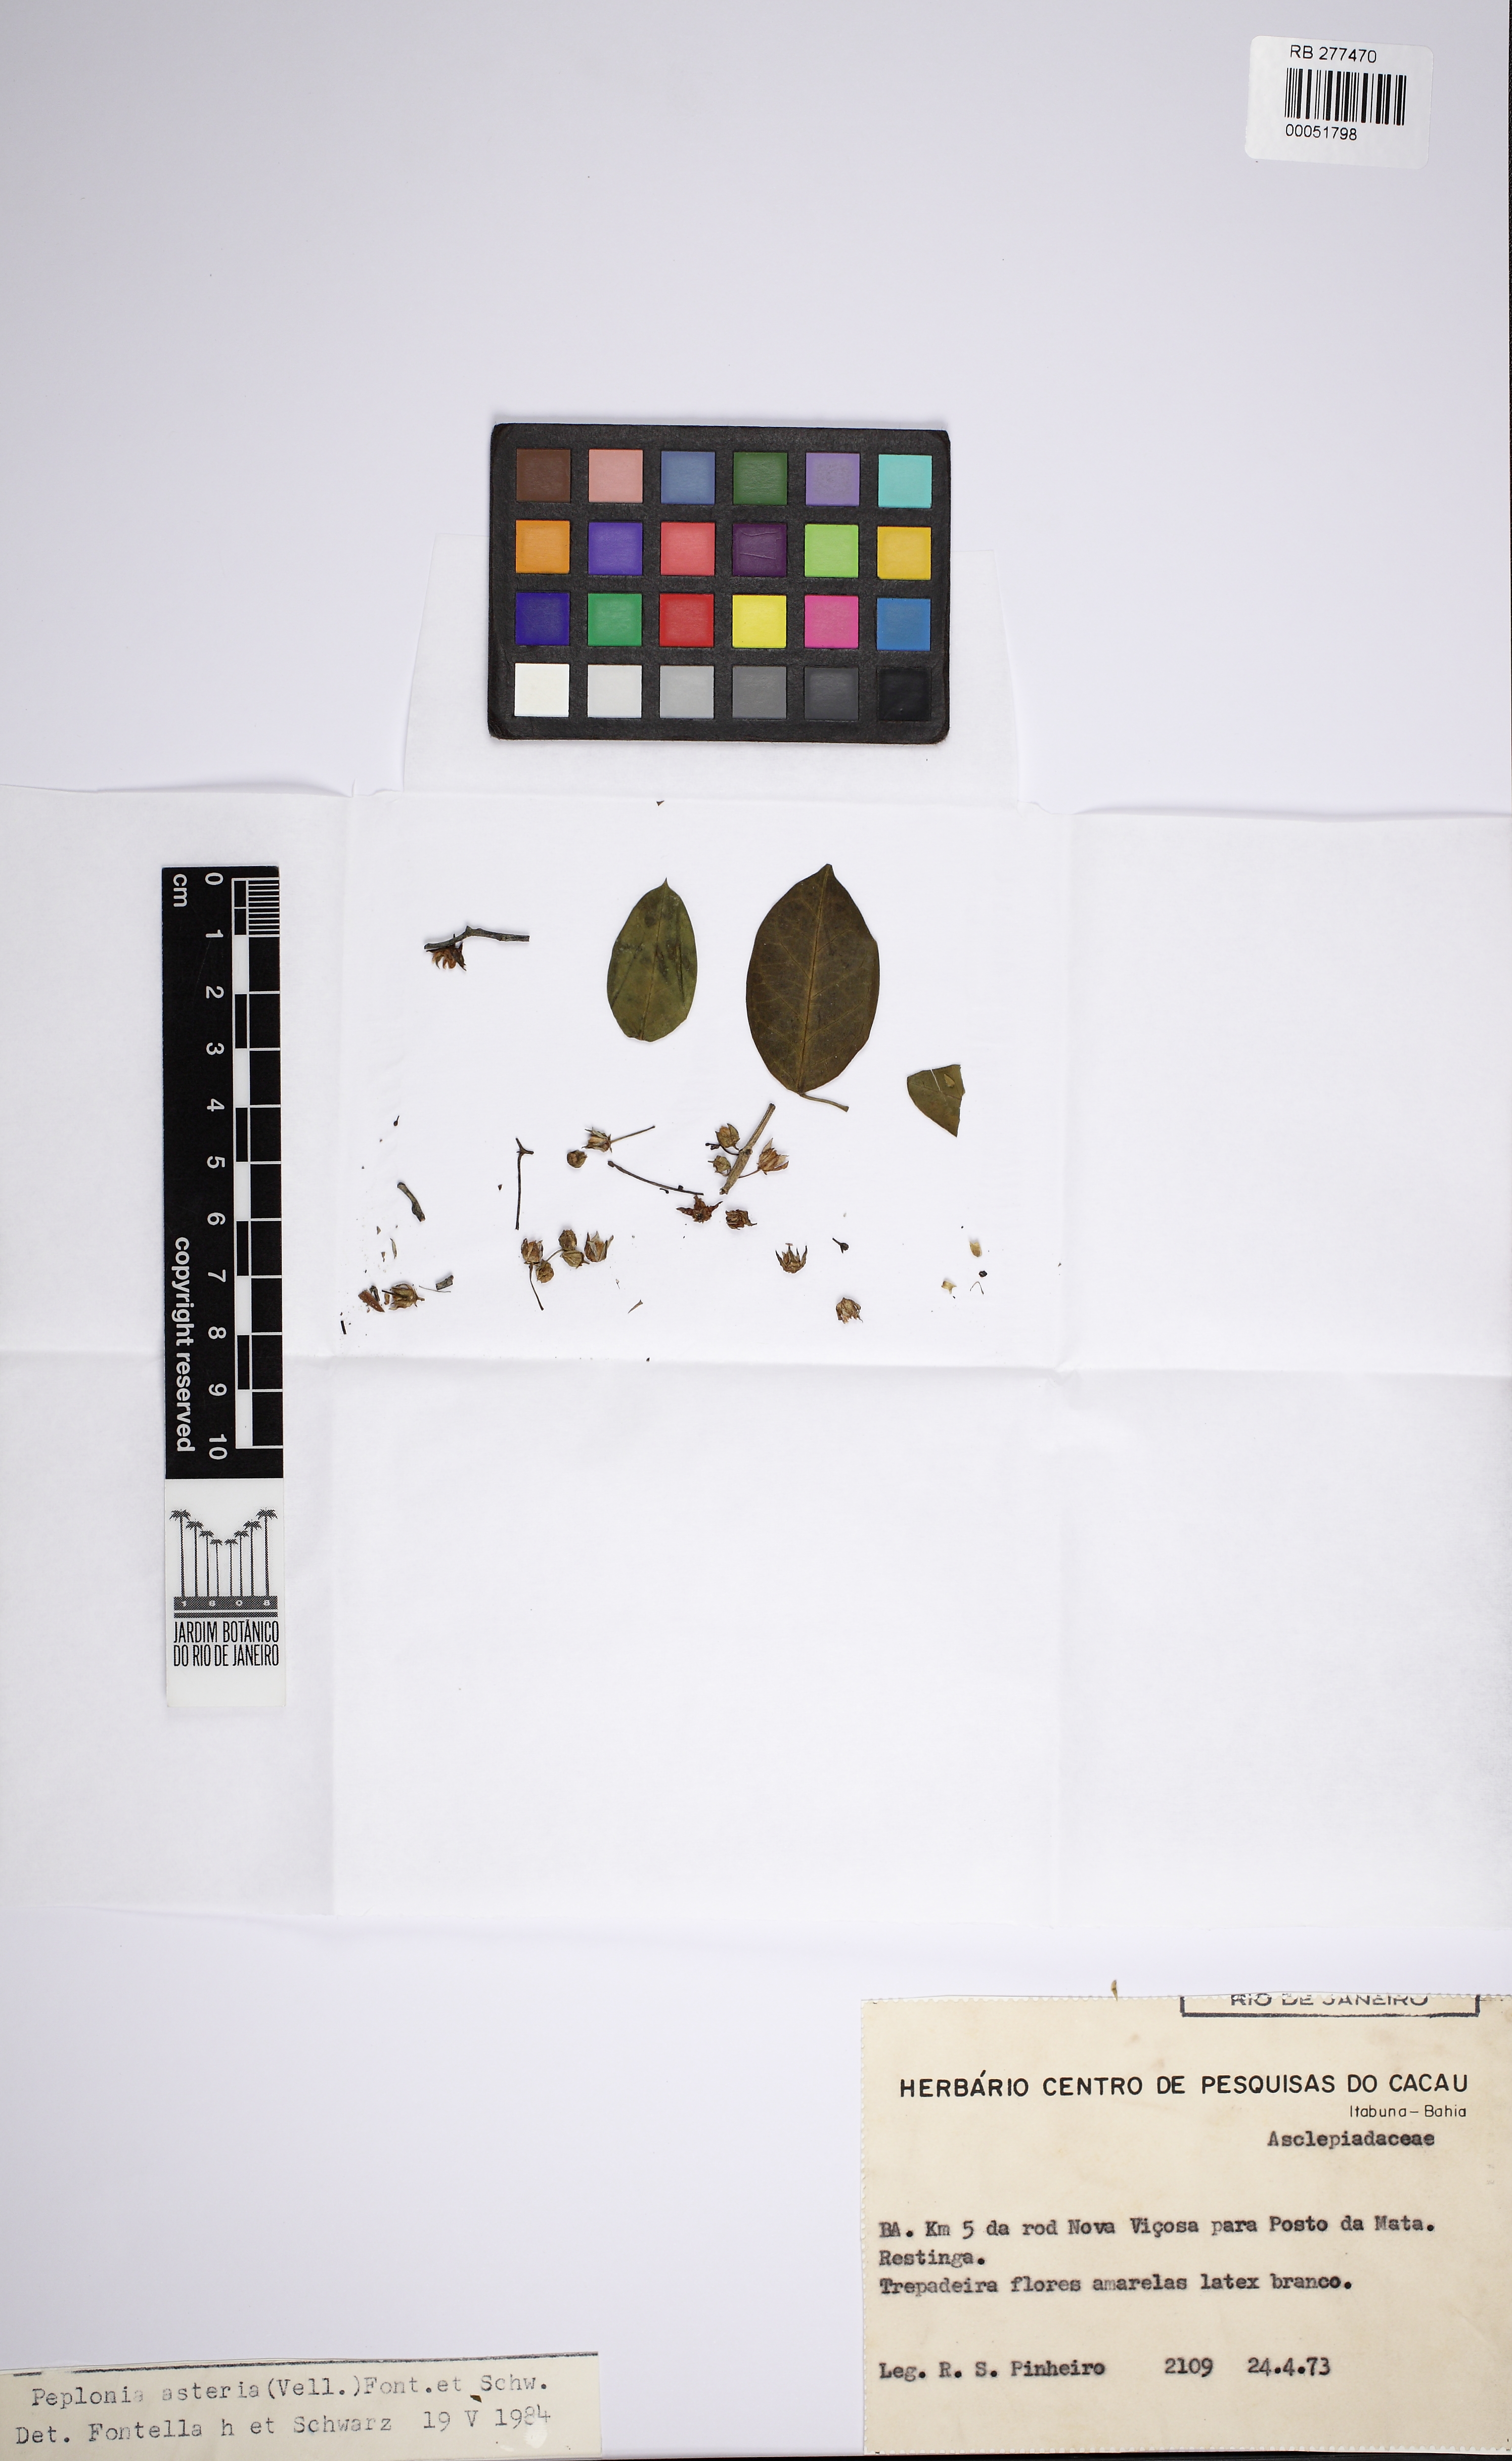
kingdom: Plantae
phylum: Tracheophyta
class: Magnoliopsida
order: Gentianales
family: Apocynaceae
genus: Peplonia
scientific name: Peplonia asteria
